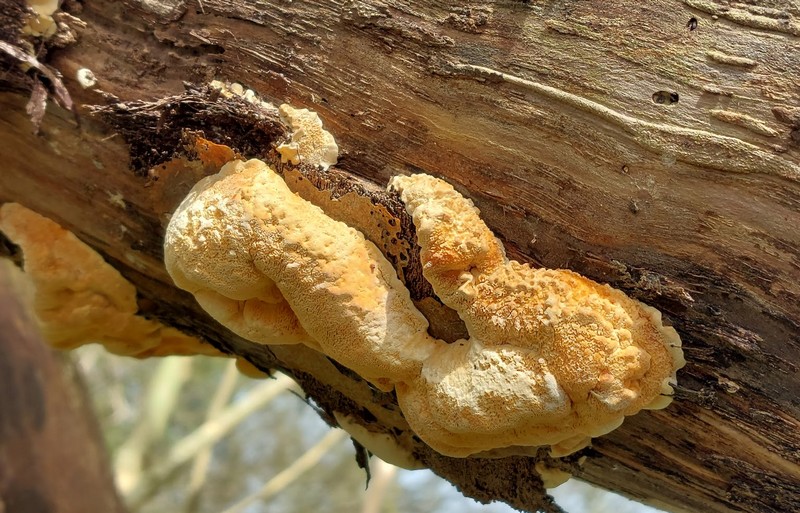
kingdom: Fungi
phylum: Basidiomycota
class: Agaricomycetes
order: Polyporales
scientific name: Polyporales
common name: poresvampordenen
